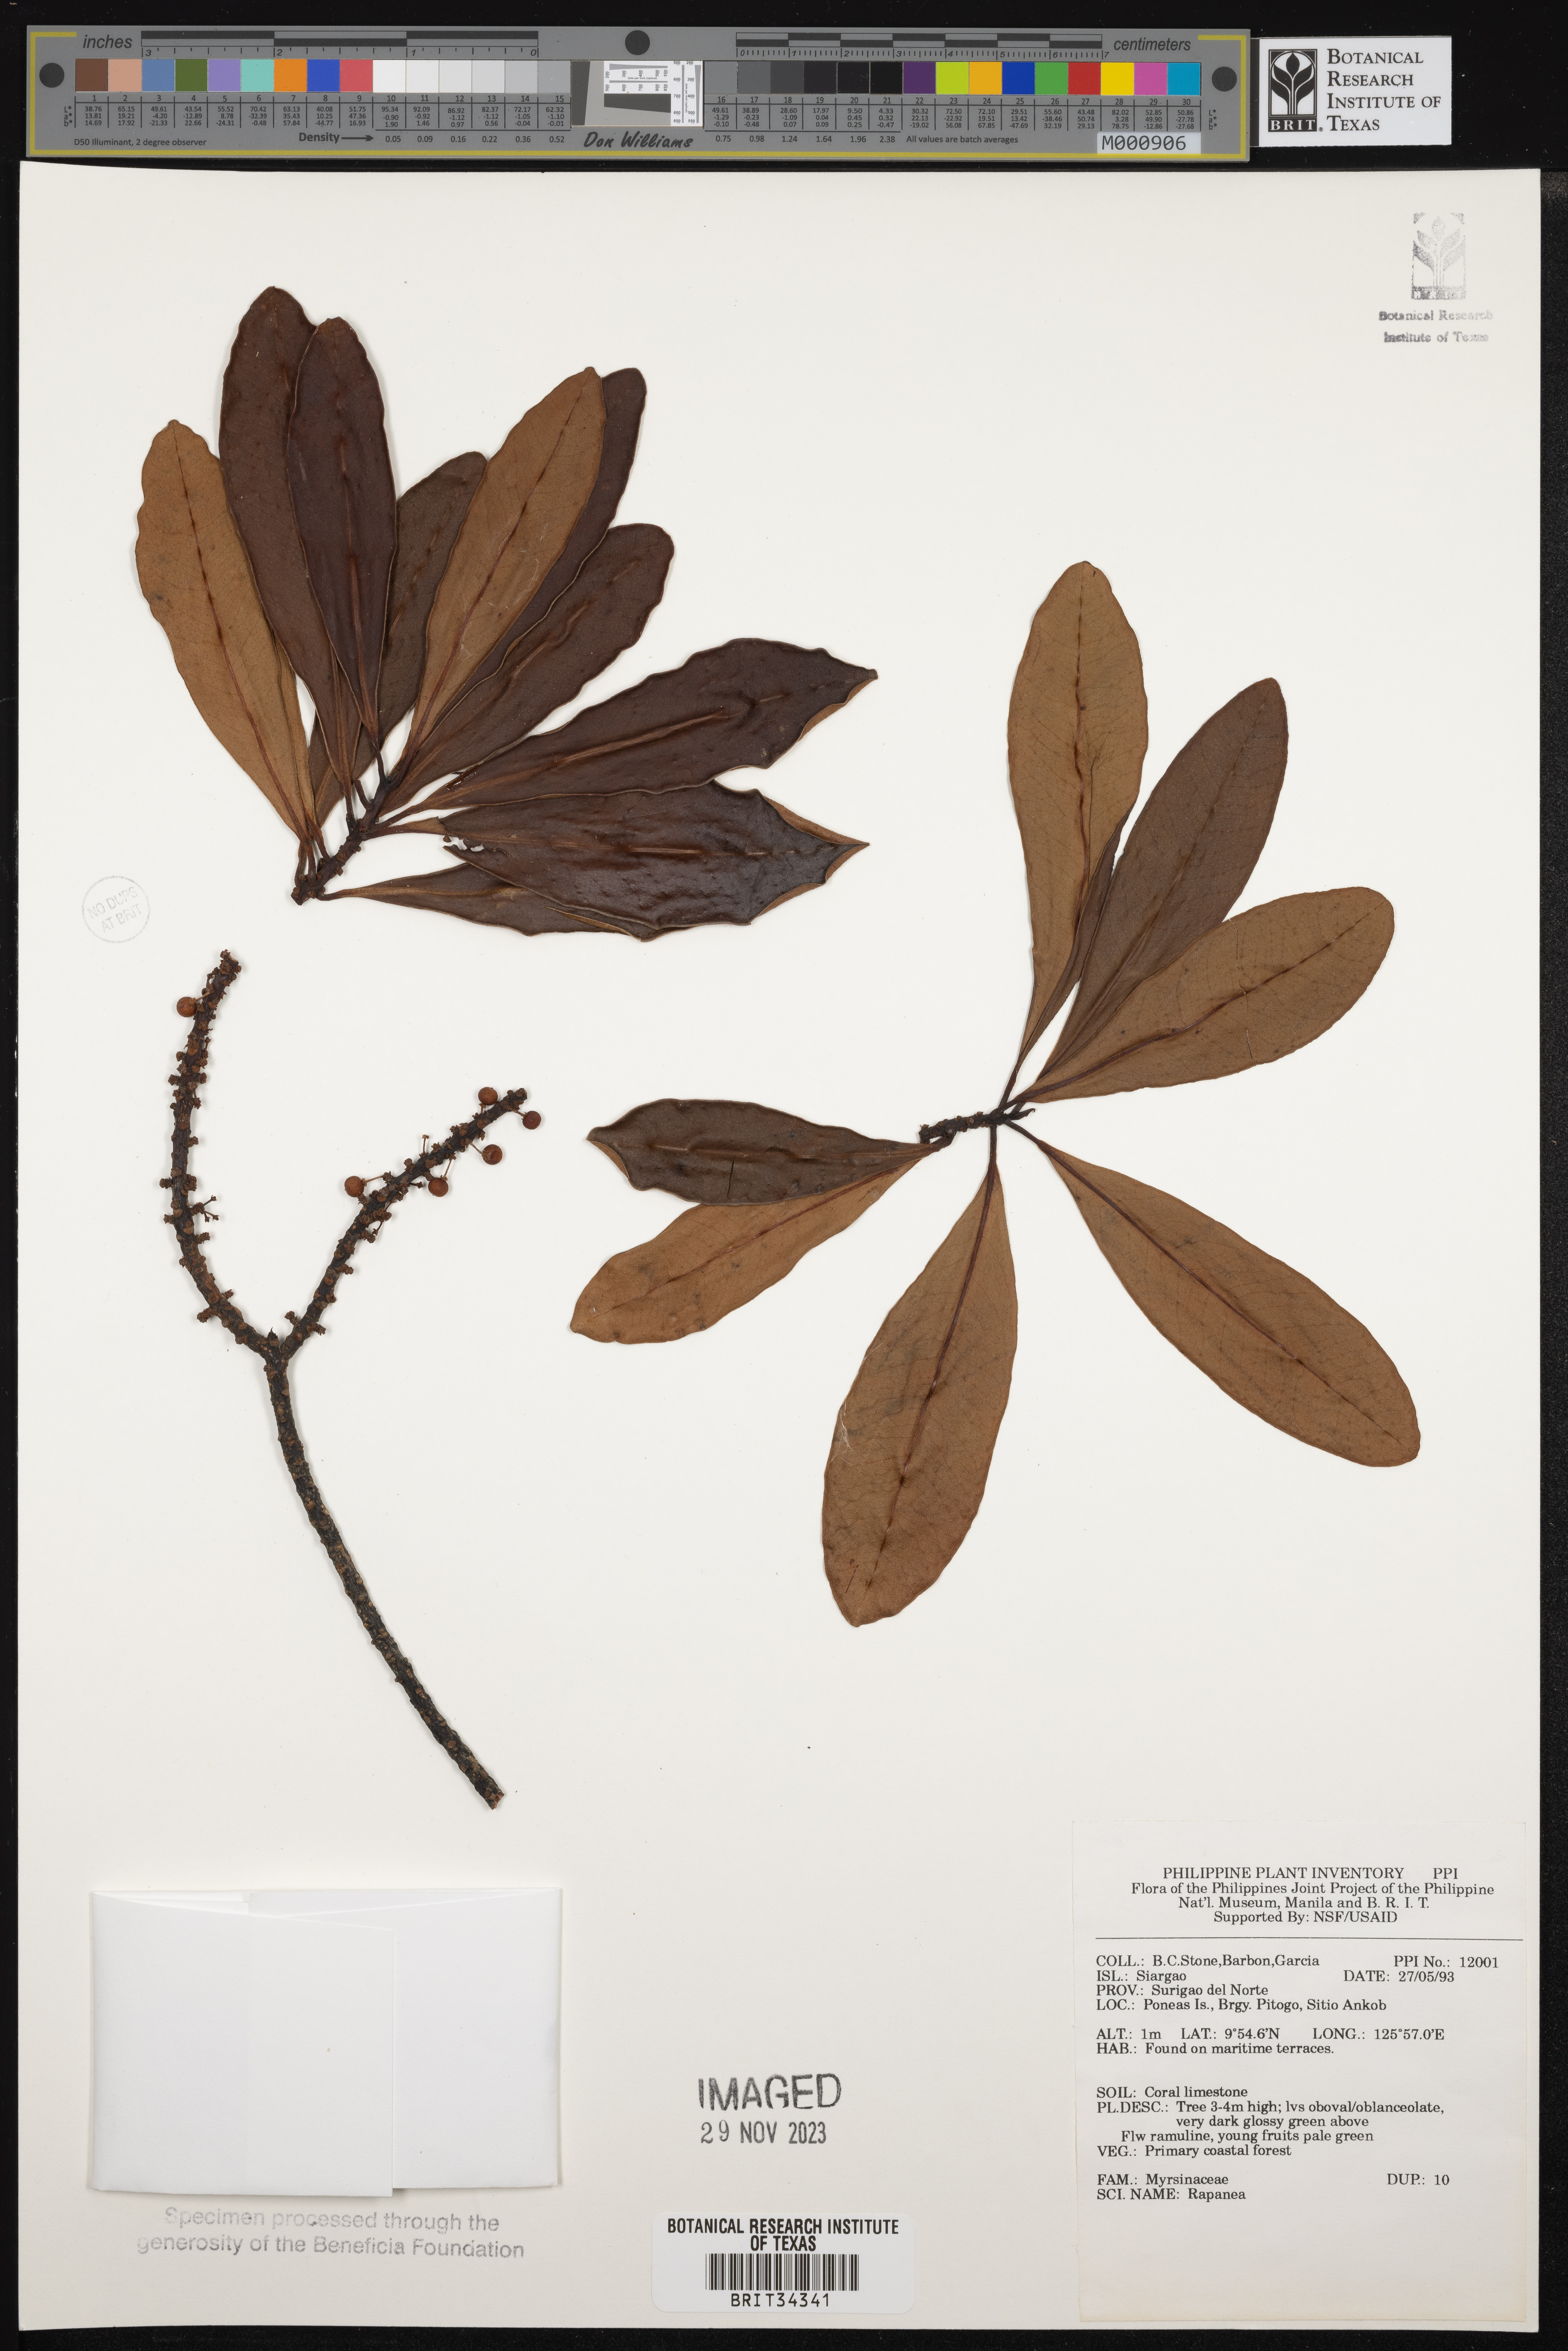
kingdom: Plantae
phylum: Tracheophyta
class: Magnoliopsida
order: Ericales
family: Primulaceae
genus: Myrsine
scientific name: Myrsine
